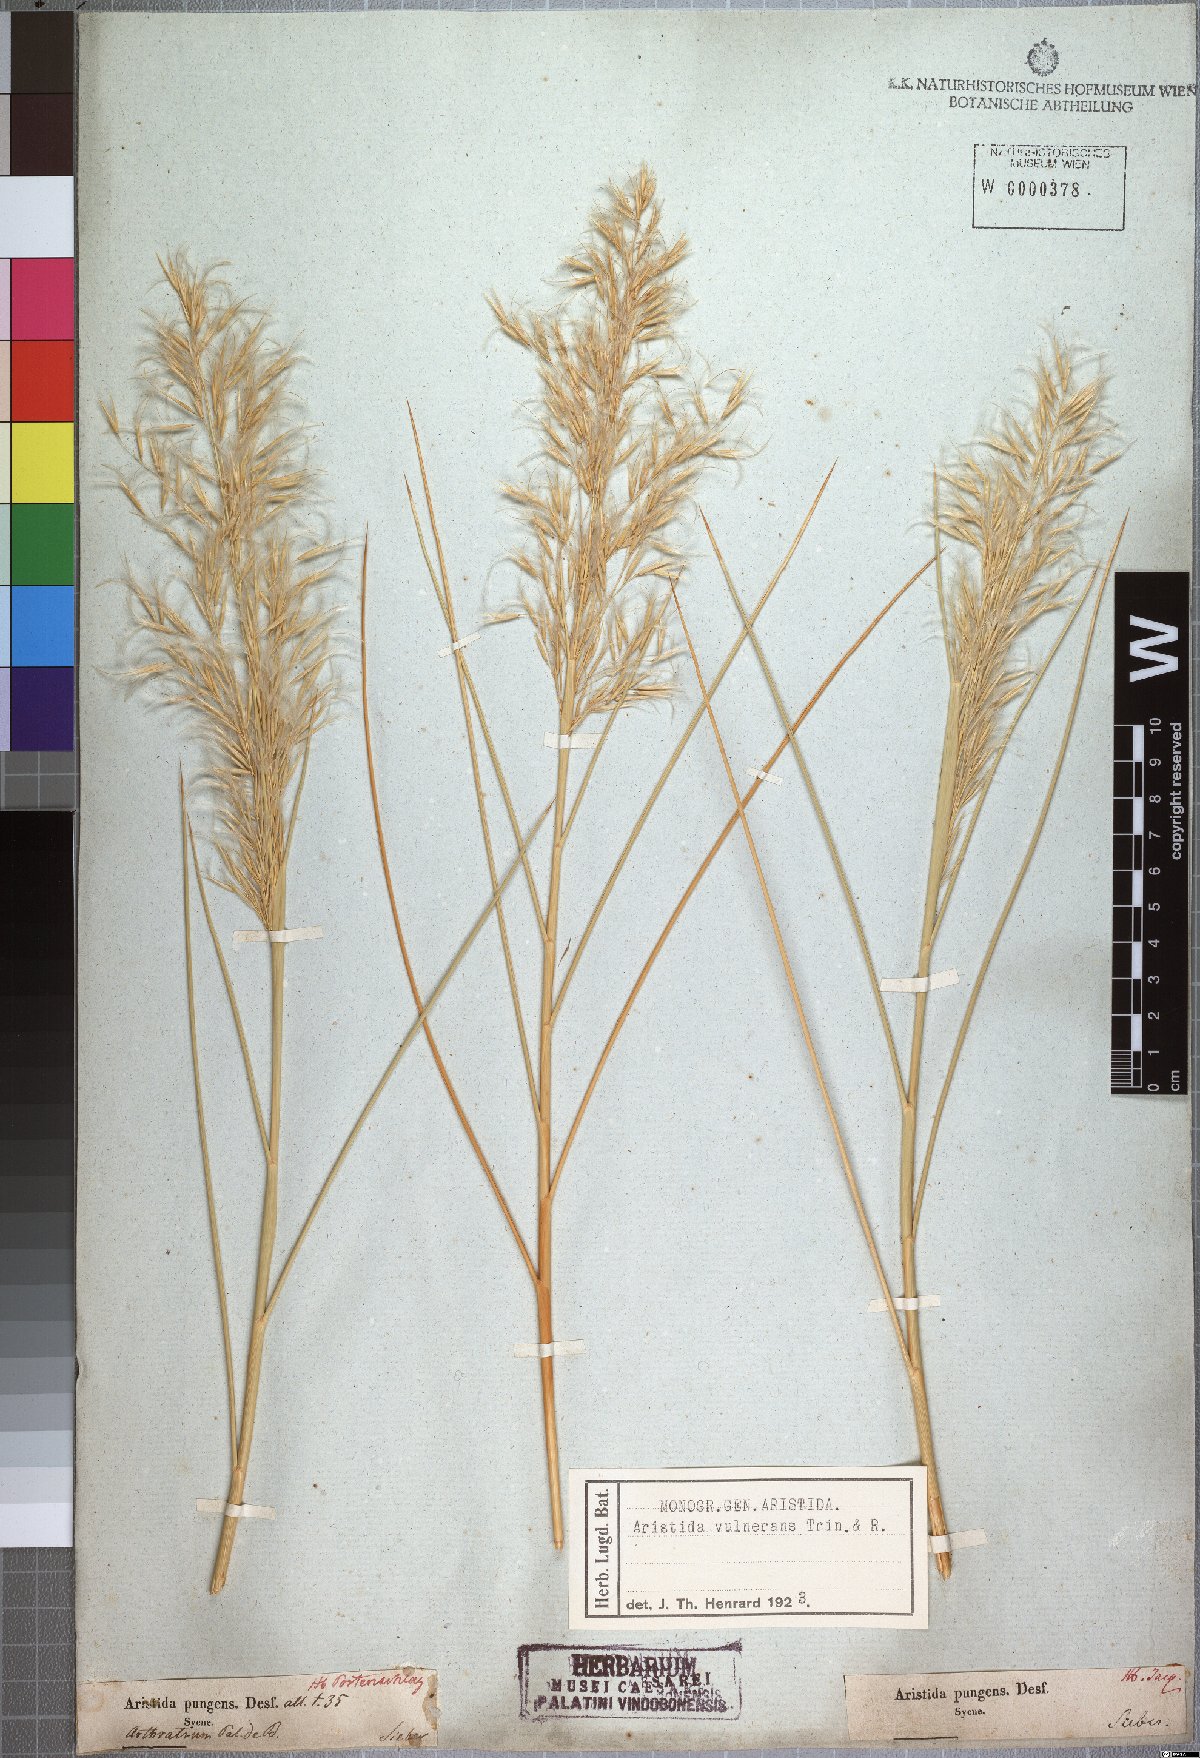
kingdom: Plantae
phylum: Tracheophyta
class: Liliopsida
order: Poales
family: Poaceae
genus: Stipagrostis
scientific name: Stipagrostis vulnerans
